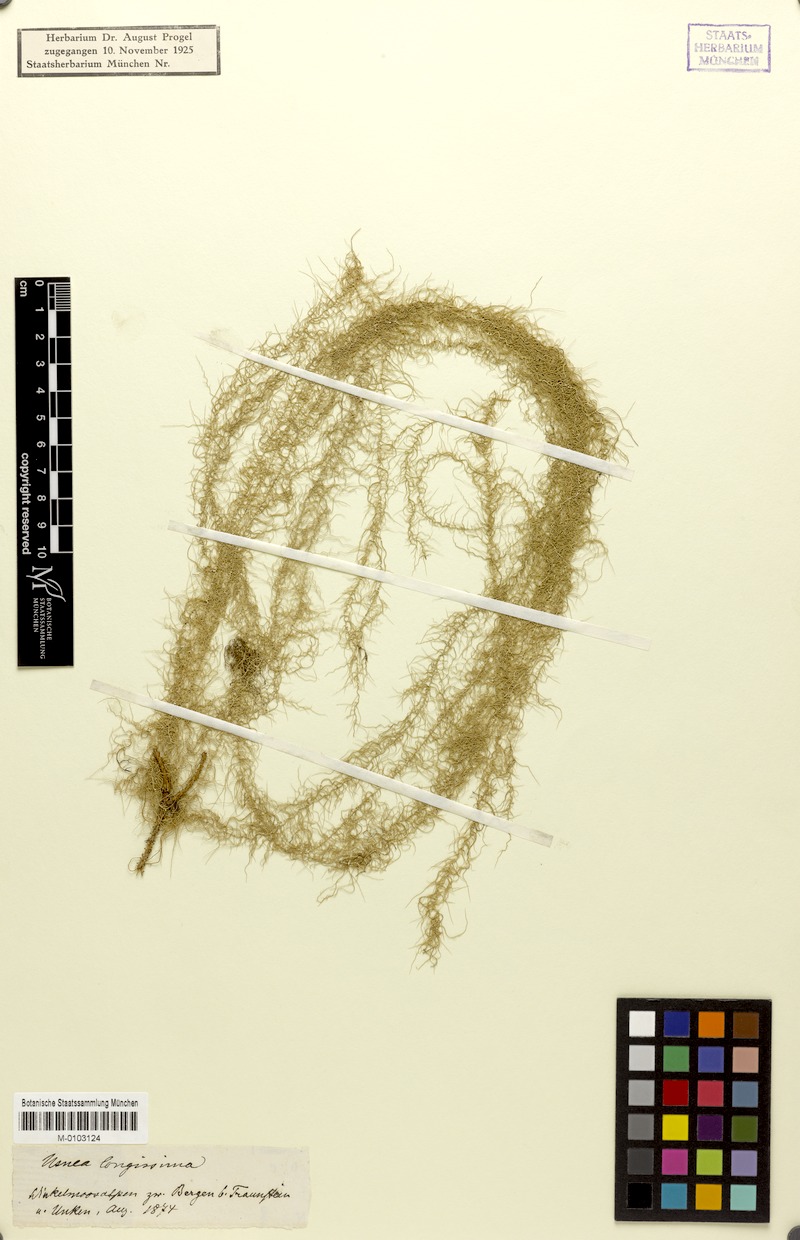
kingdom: Fungi
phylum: Ascomycota
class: Lecanoromycetes
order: Lecanorales
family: Parmeliaceae
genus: Dolichousnea
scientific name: Dolichousnea longissima
